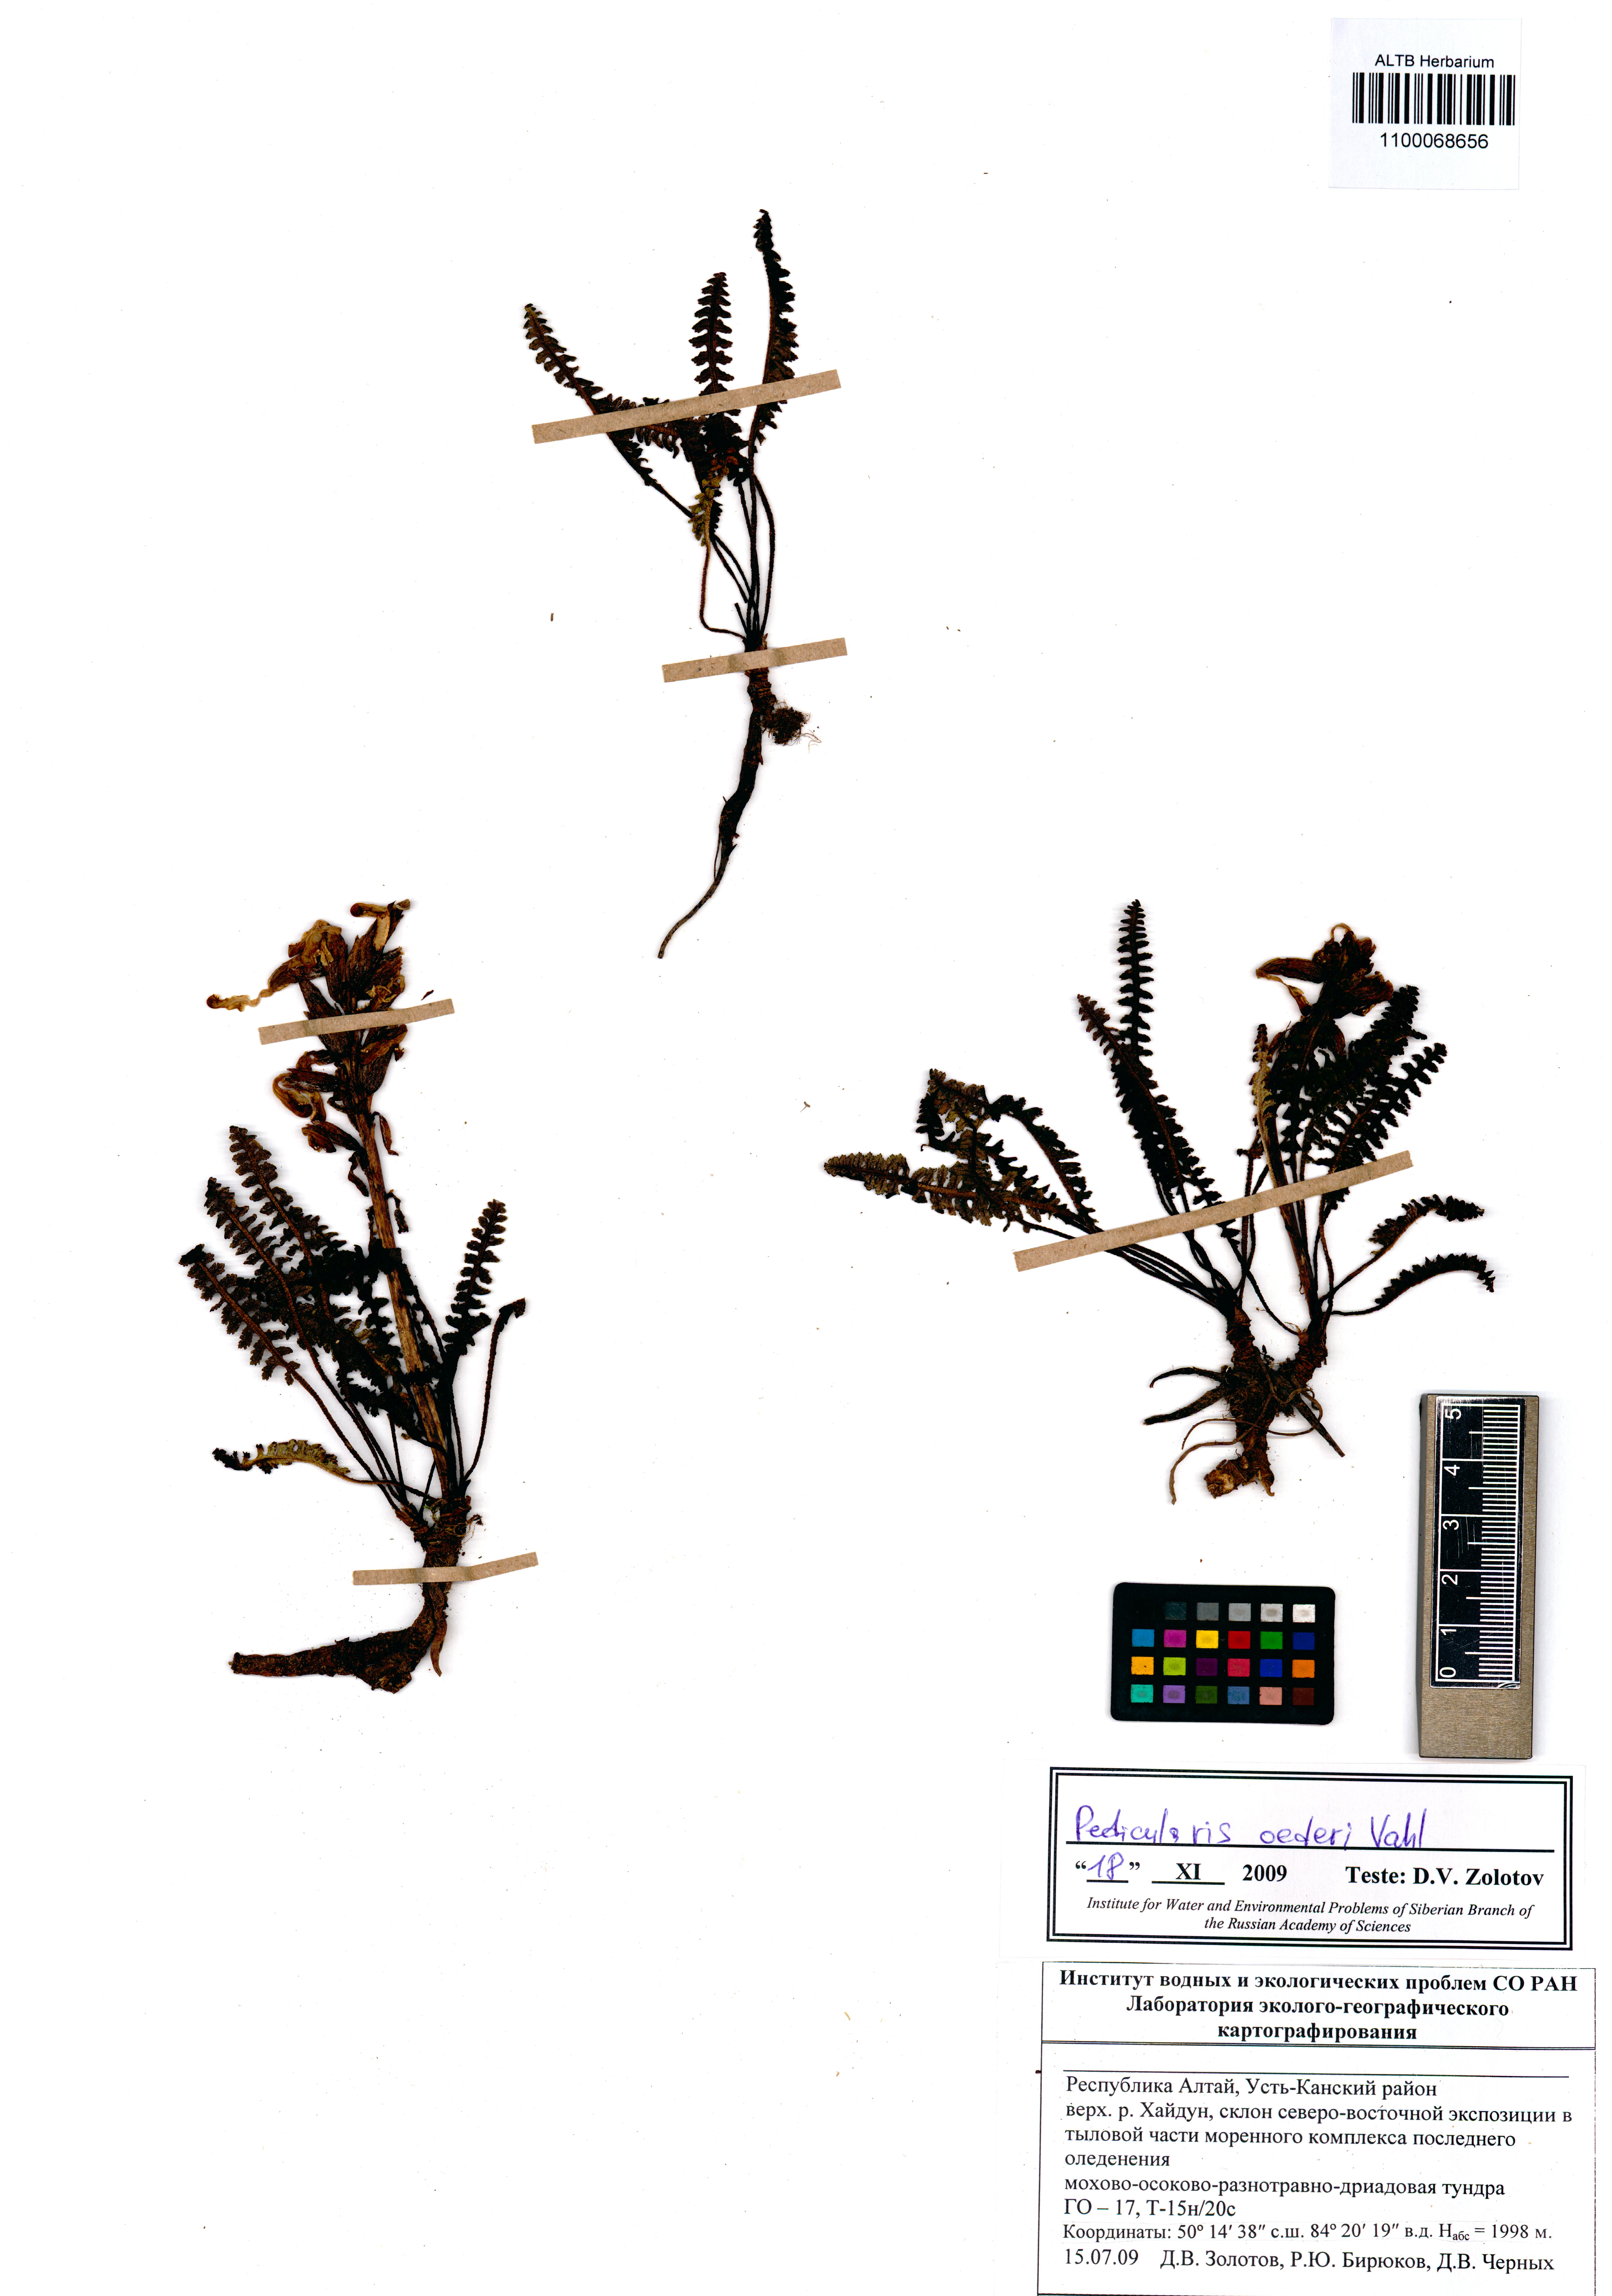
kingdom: Plantae
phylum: Tracheophyta
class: Magnoliopsida
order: Lamiales
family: Orobanchaceae
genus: Pedicularis
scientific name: Pedicularis oederi
